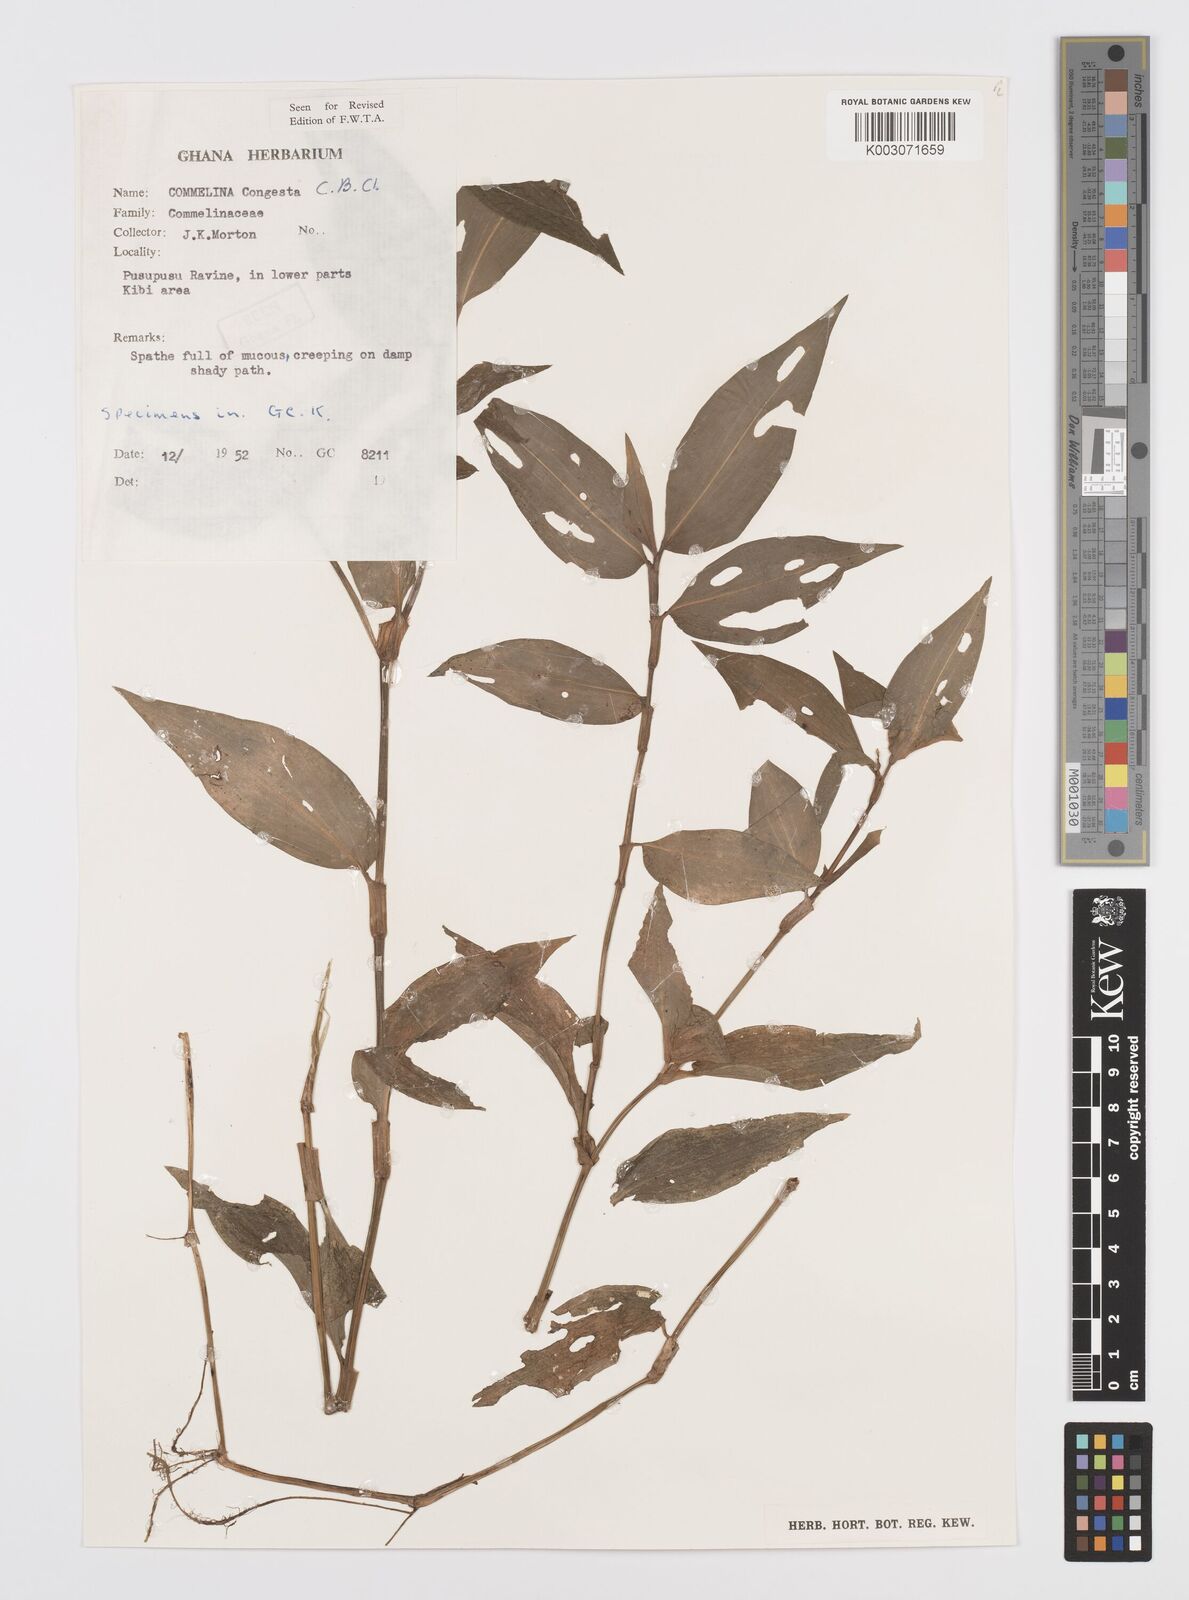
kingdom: Plantae
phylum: Tracheophyta
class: Liliopsida
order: Commelinales
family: Commelinaceae
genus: Commelina
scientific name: Commelina congesta
